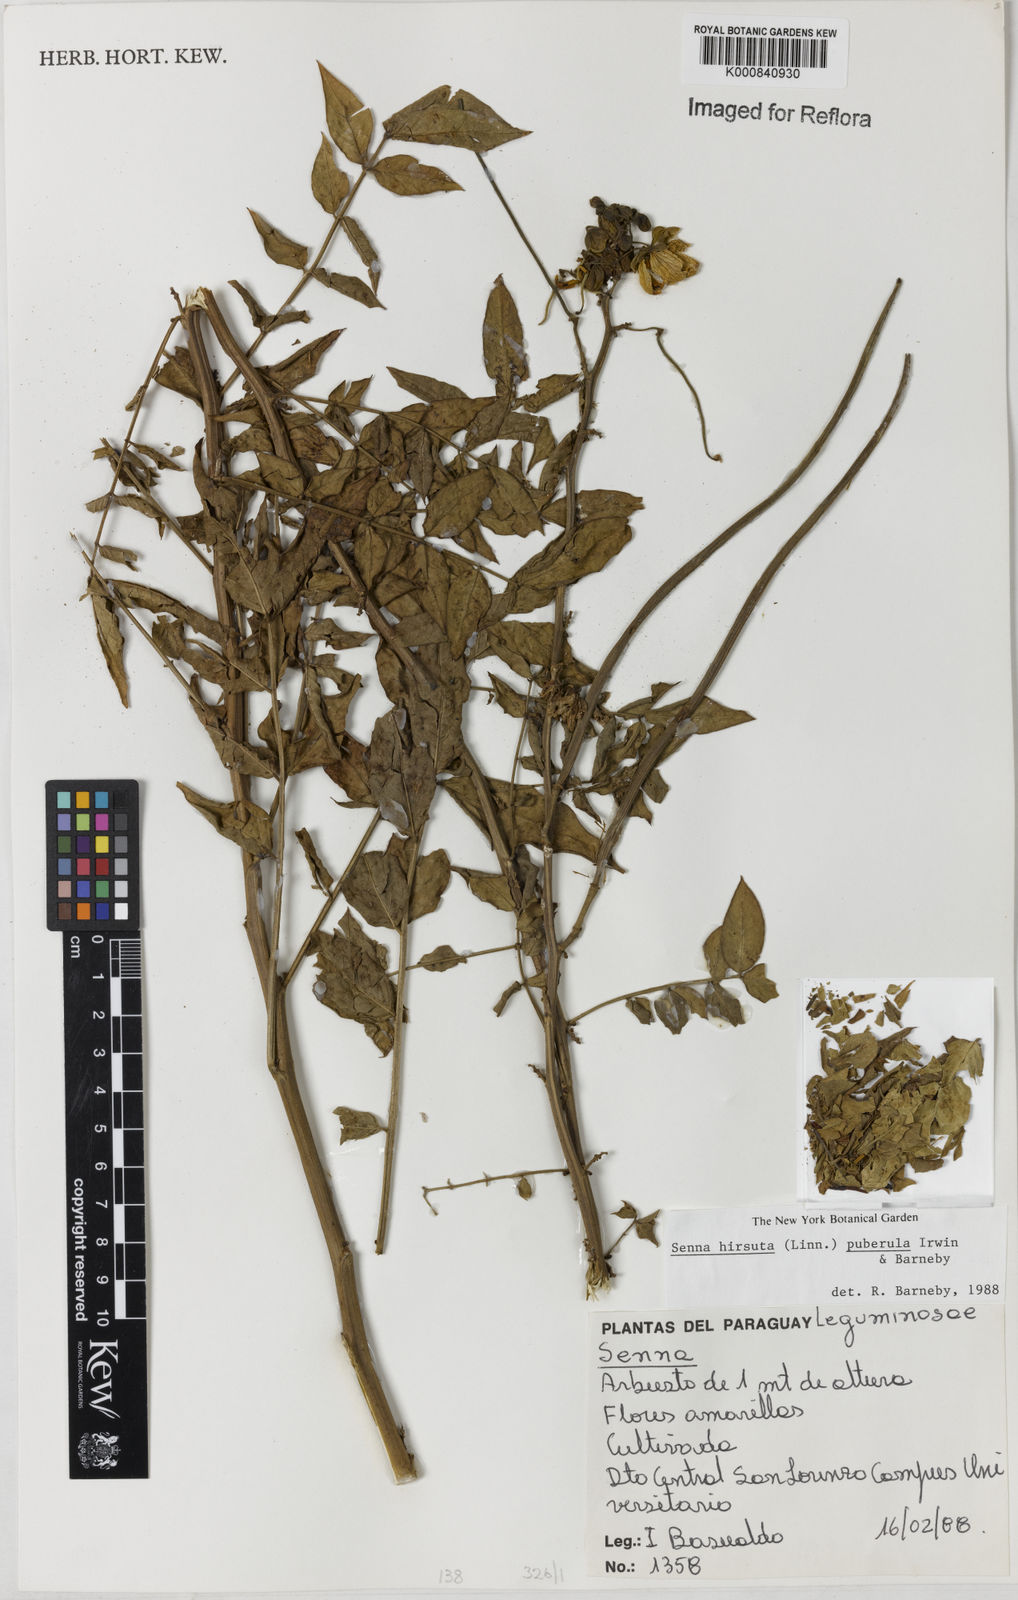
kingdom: Plantae
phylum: Tracheophyta
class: Magnoliopsida
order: Fabales
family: Fabaceae
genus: Senna
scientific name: Senna hirsuta
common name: Woolly senna
